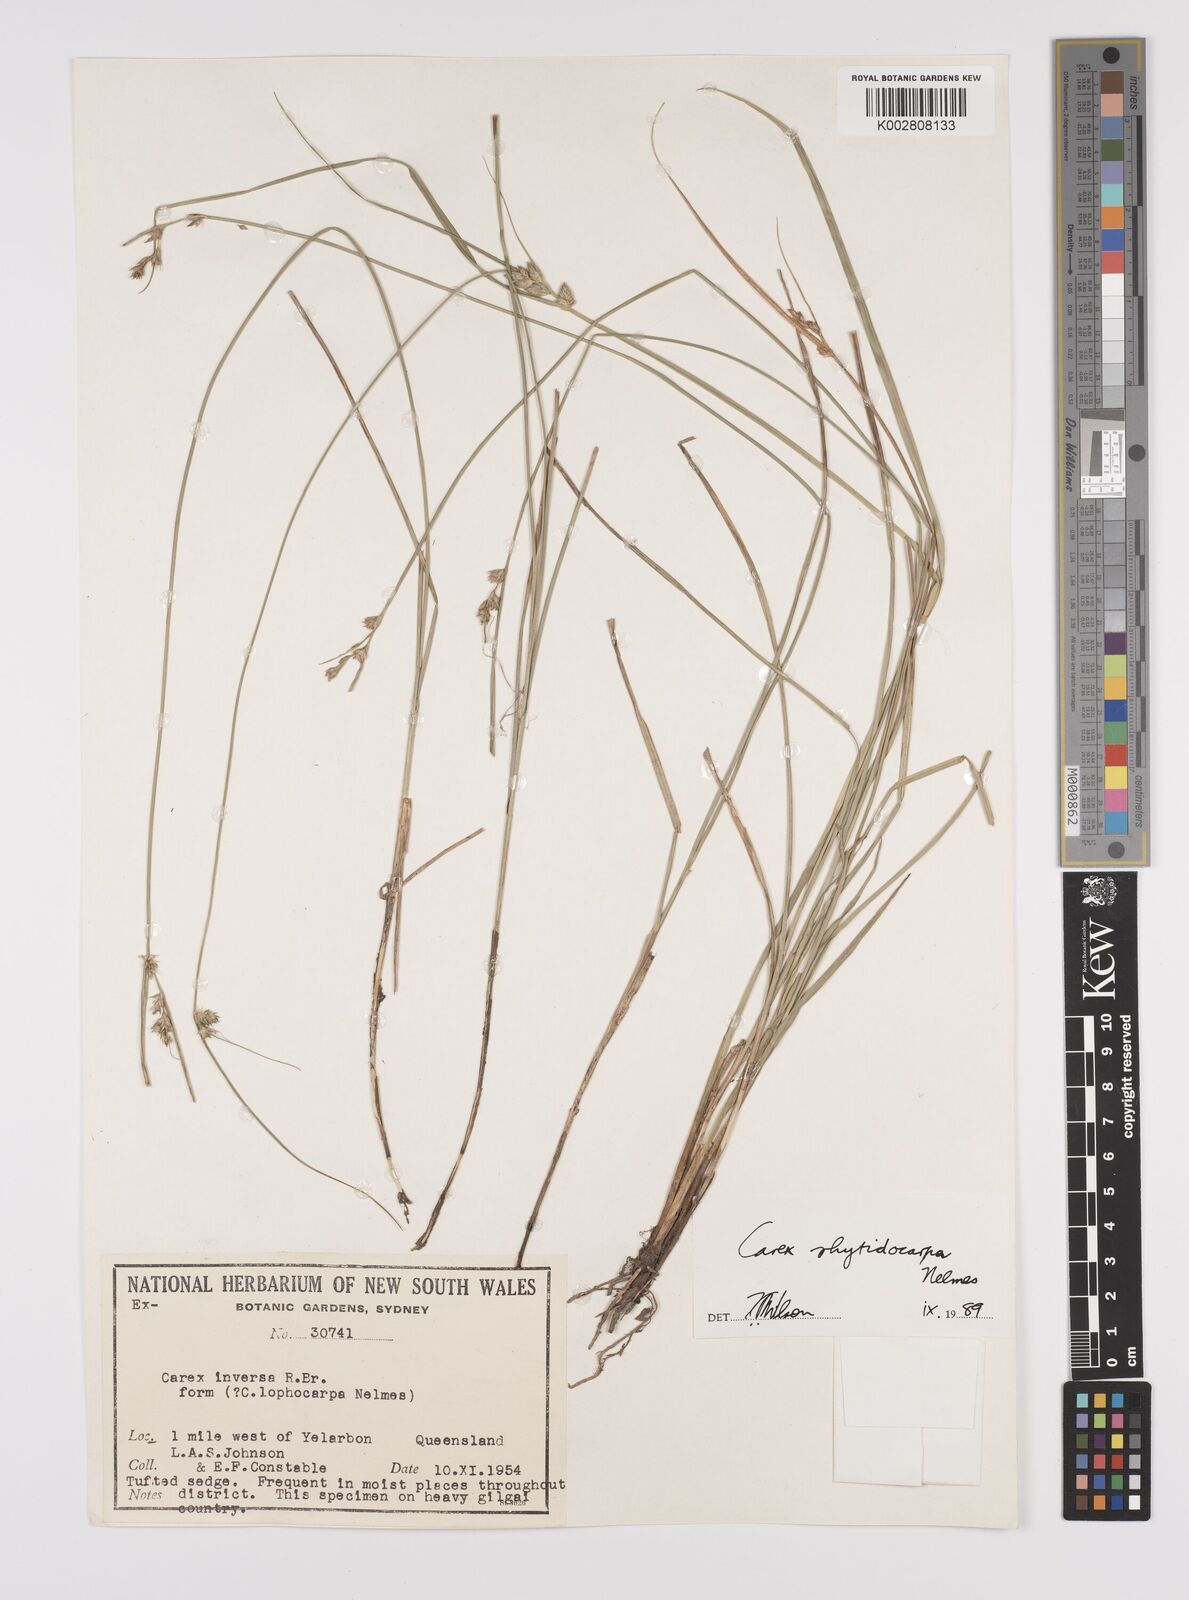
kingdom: Plantae
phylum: Tracheophyta
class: Liliopsida
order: Poales
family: Cyperaceae
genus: Carex
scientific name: Carex inversa
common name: Knob sedge
